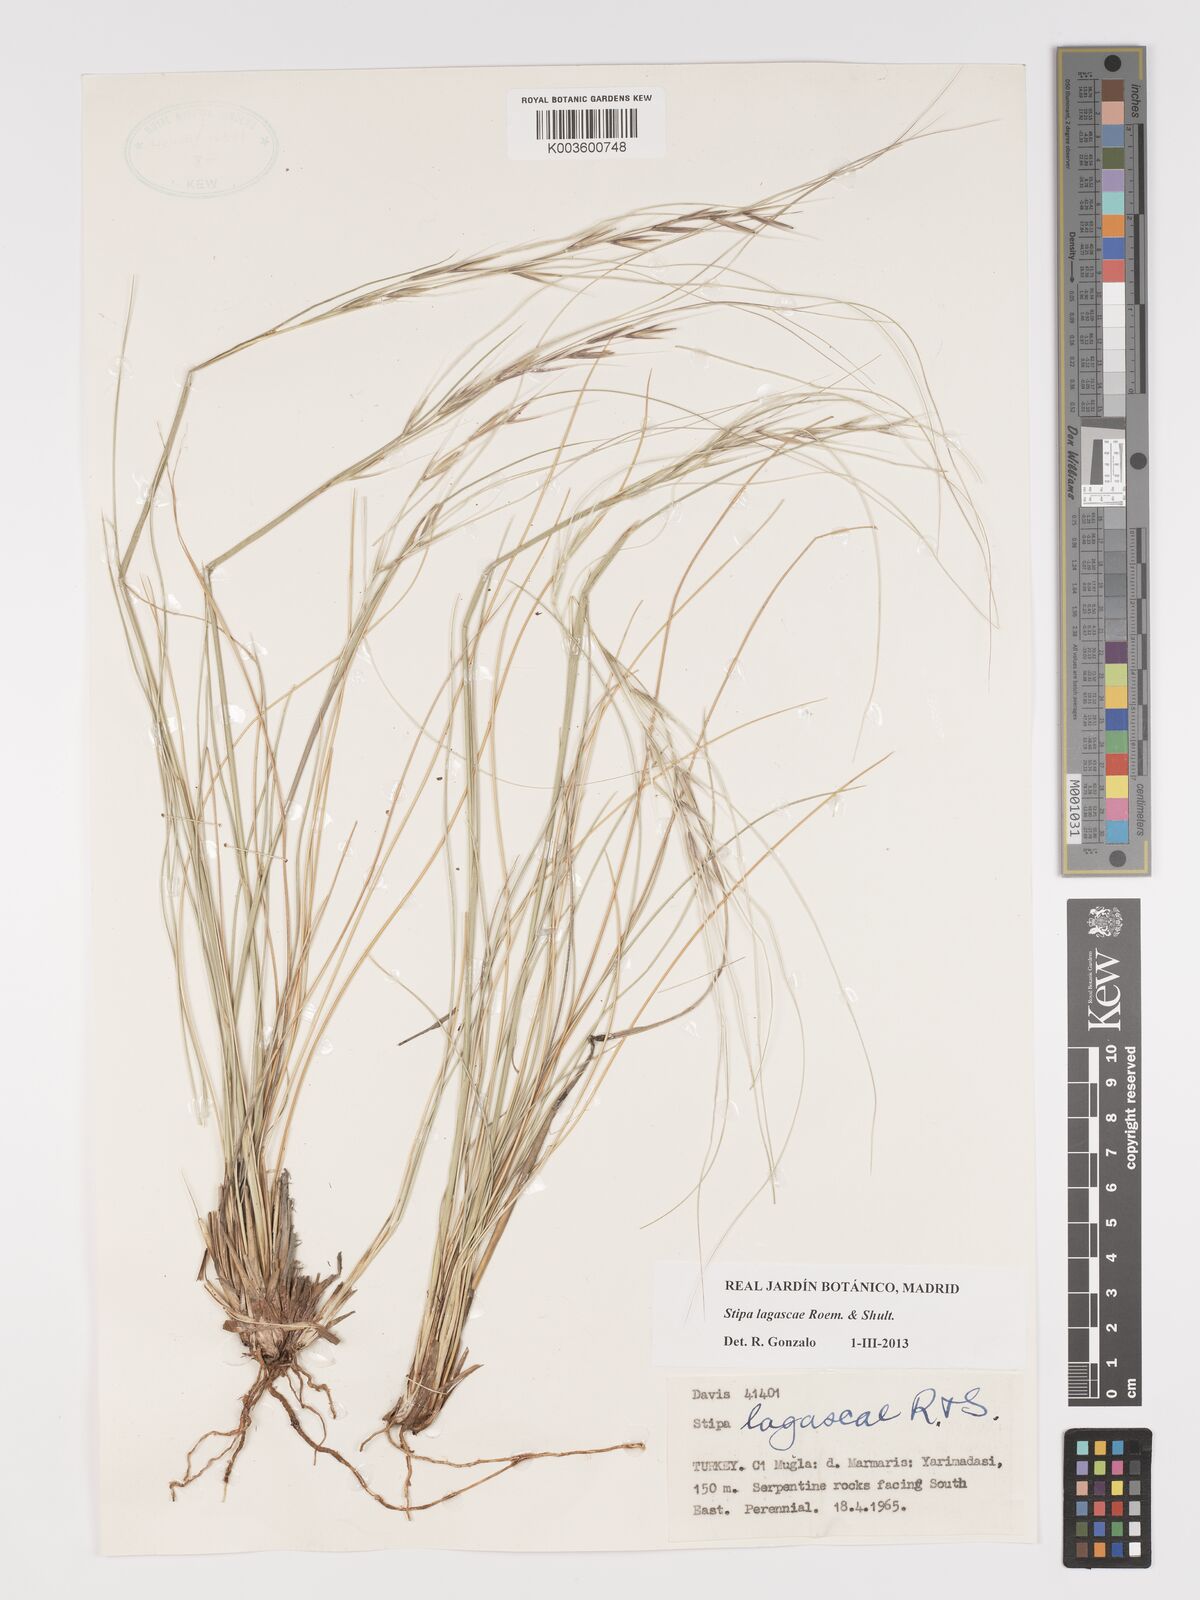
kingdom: Plantae
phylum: Tracheophyta
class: Liliopsida
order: Poales
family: Poaceae
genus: Stipa
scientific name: Stipa lagascae
